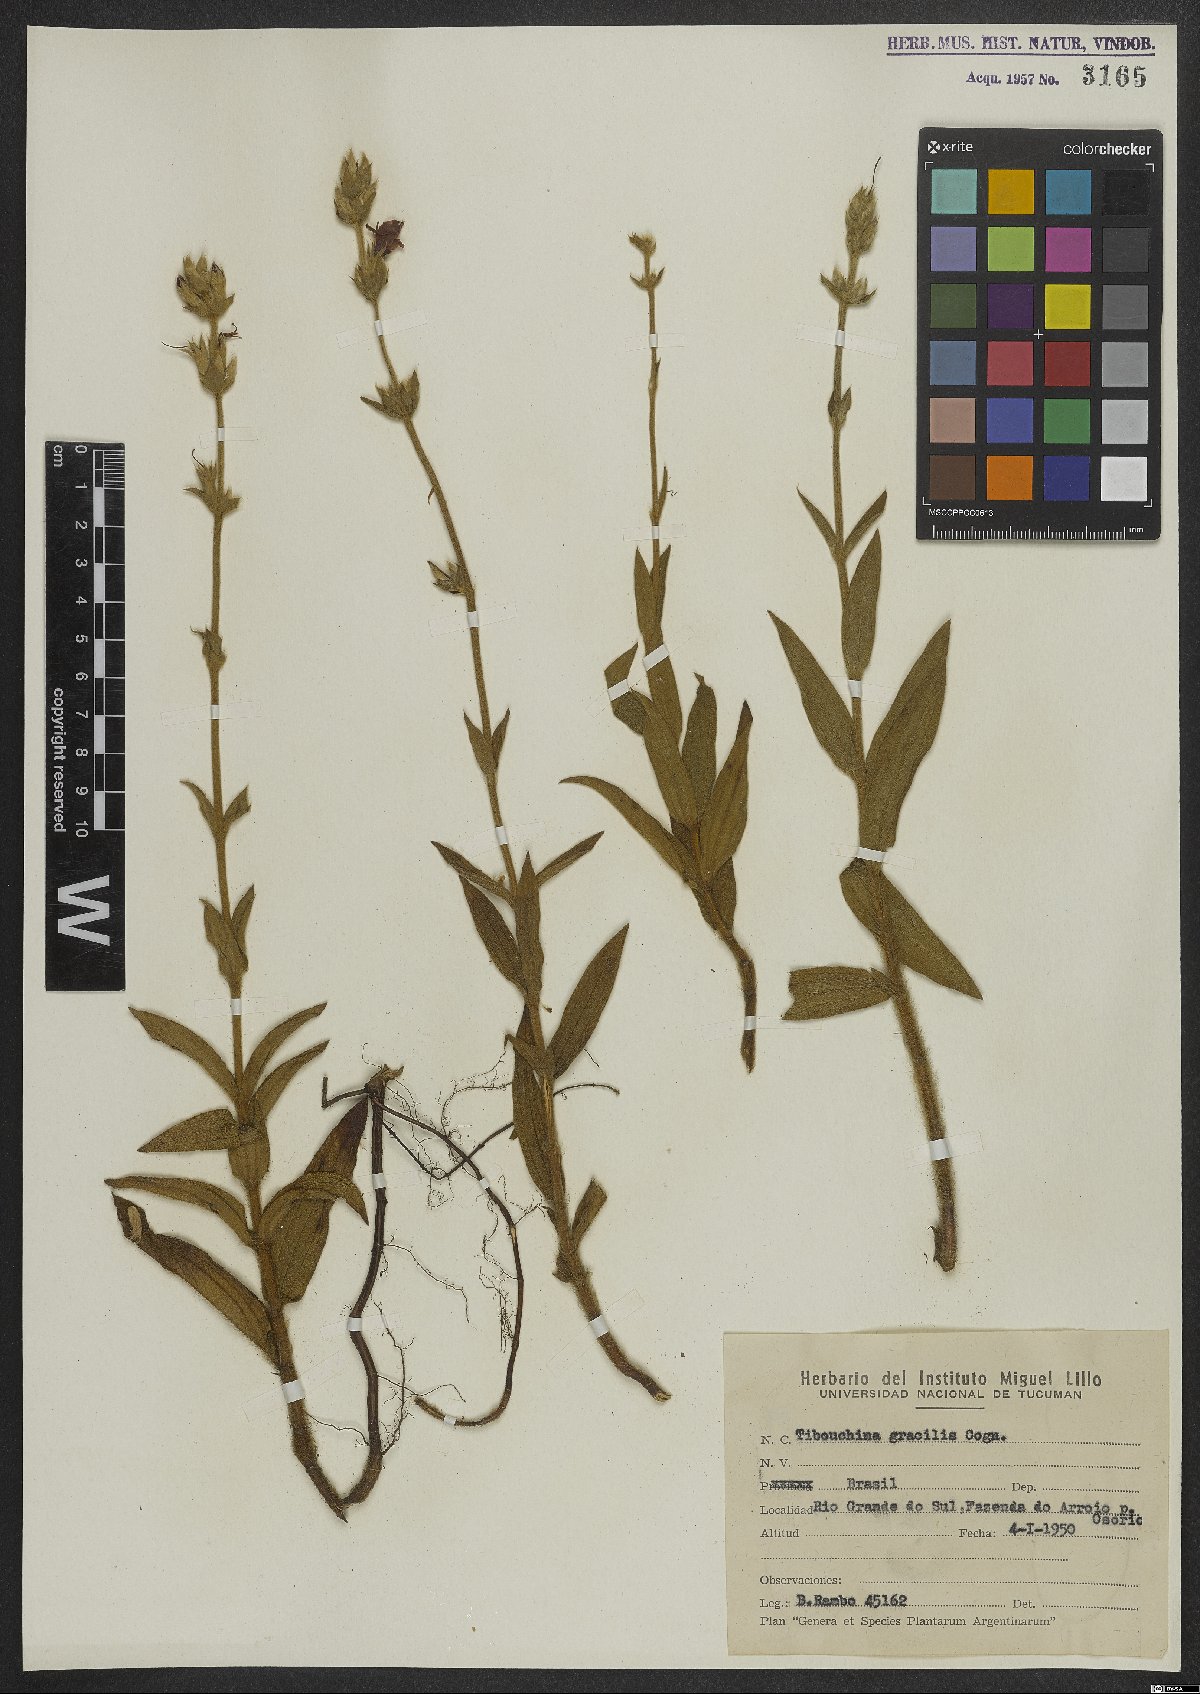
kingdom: Plantae
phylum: Tracheophyta
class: Magnoliopsida
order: Myrtales
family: Melastomataceae
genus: Chaetogastra
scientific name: Chaetogastra gracilis
